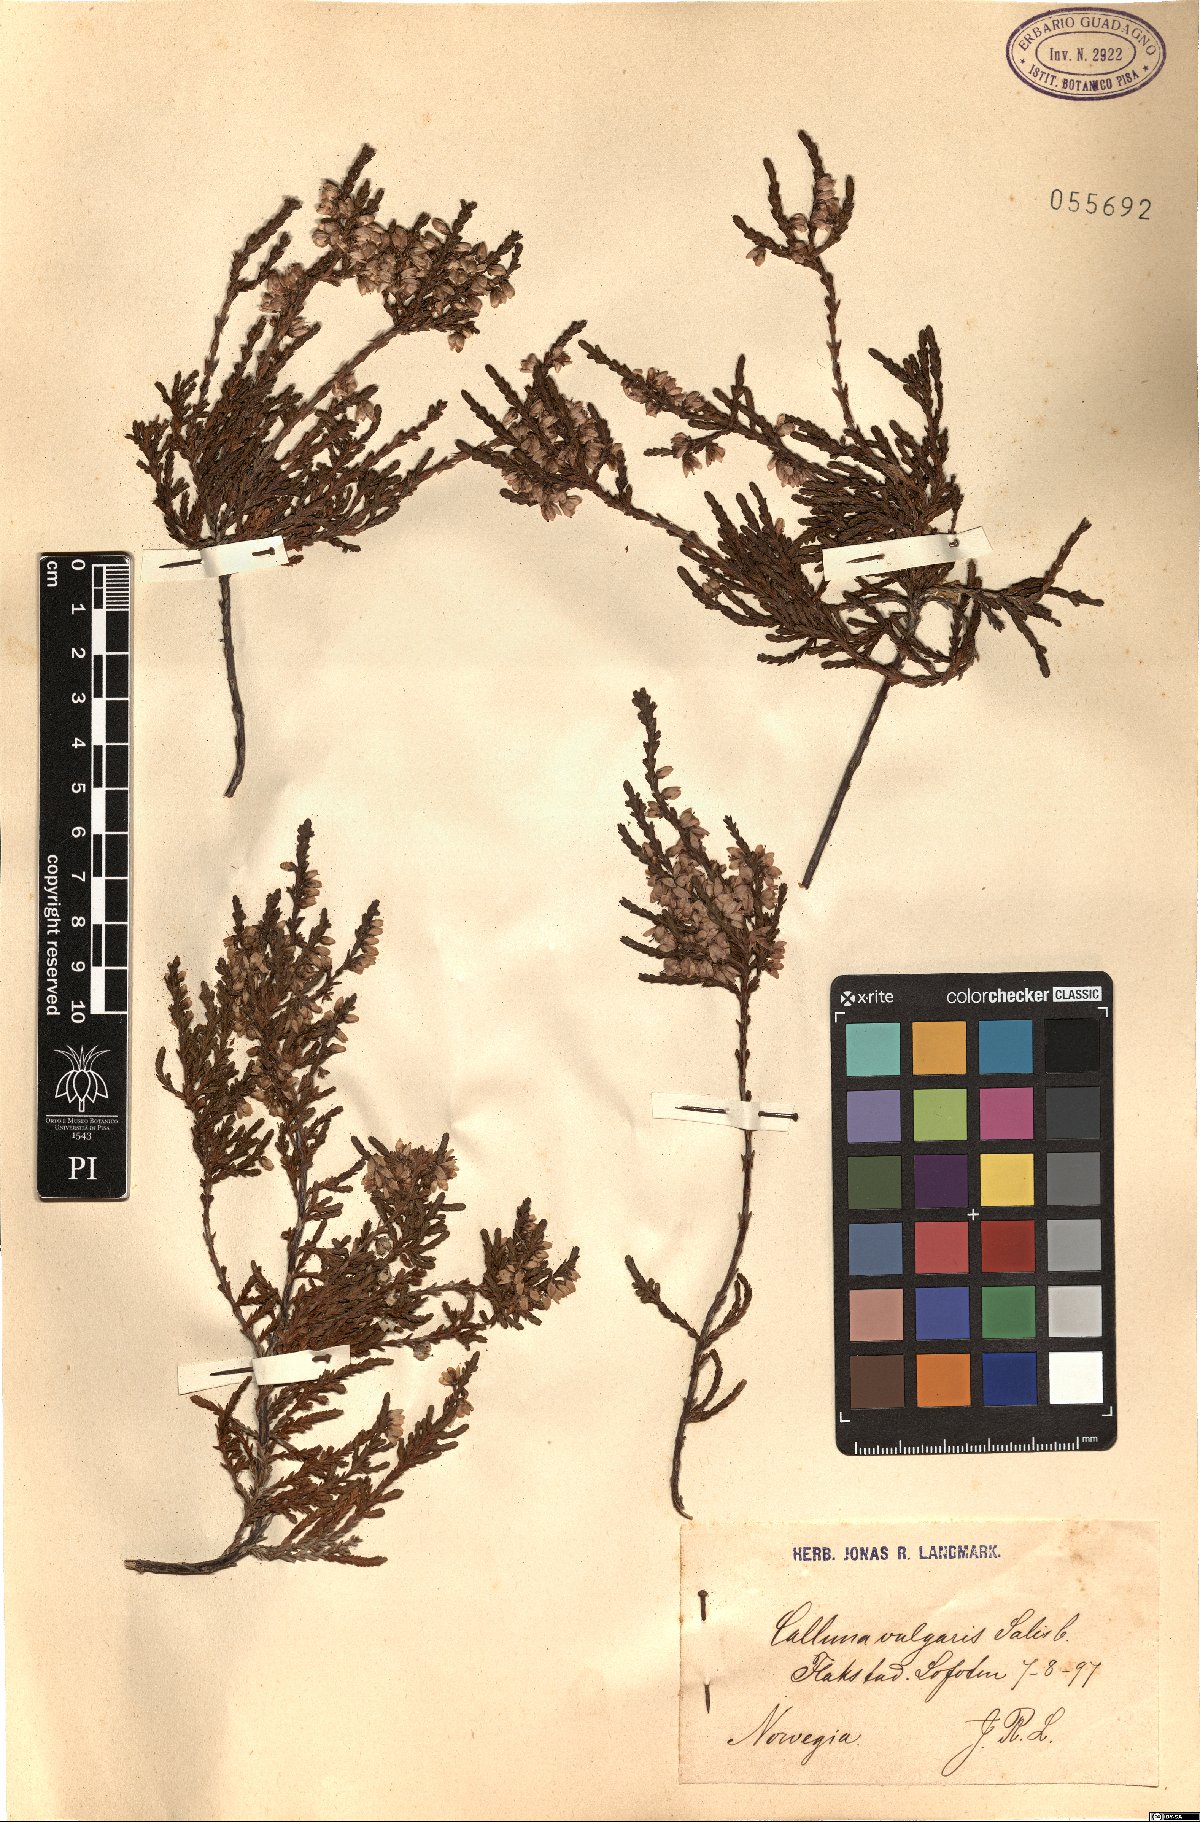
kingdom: Plantae
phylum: Tracheophyta
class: Magnoliopsida
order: Ericales
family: Ericaceae
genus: Calluna
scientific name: Calluna vulgaris
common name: Heather
